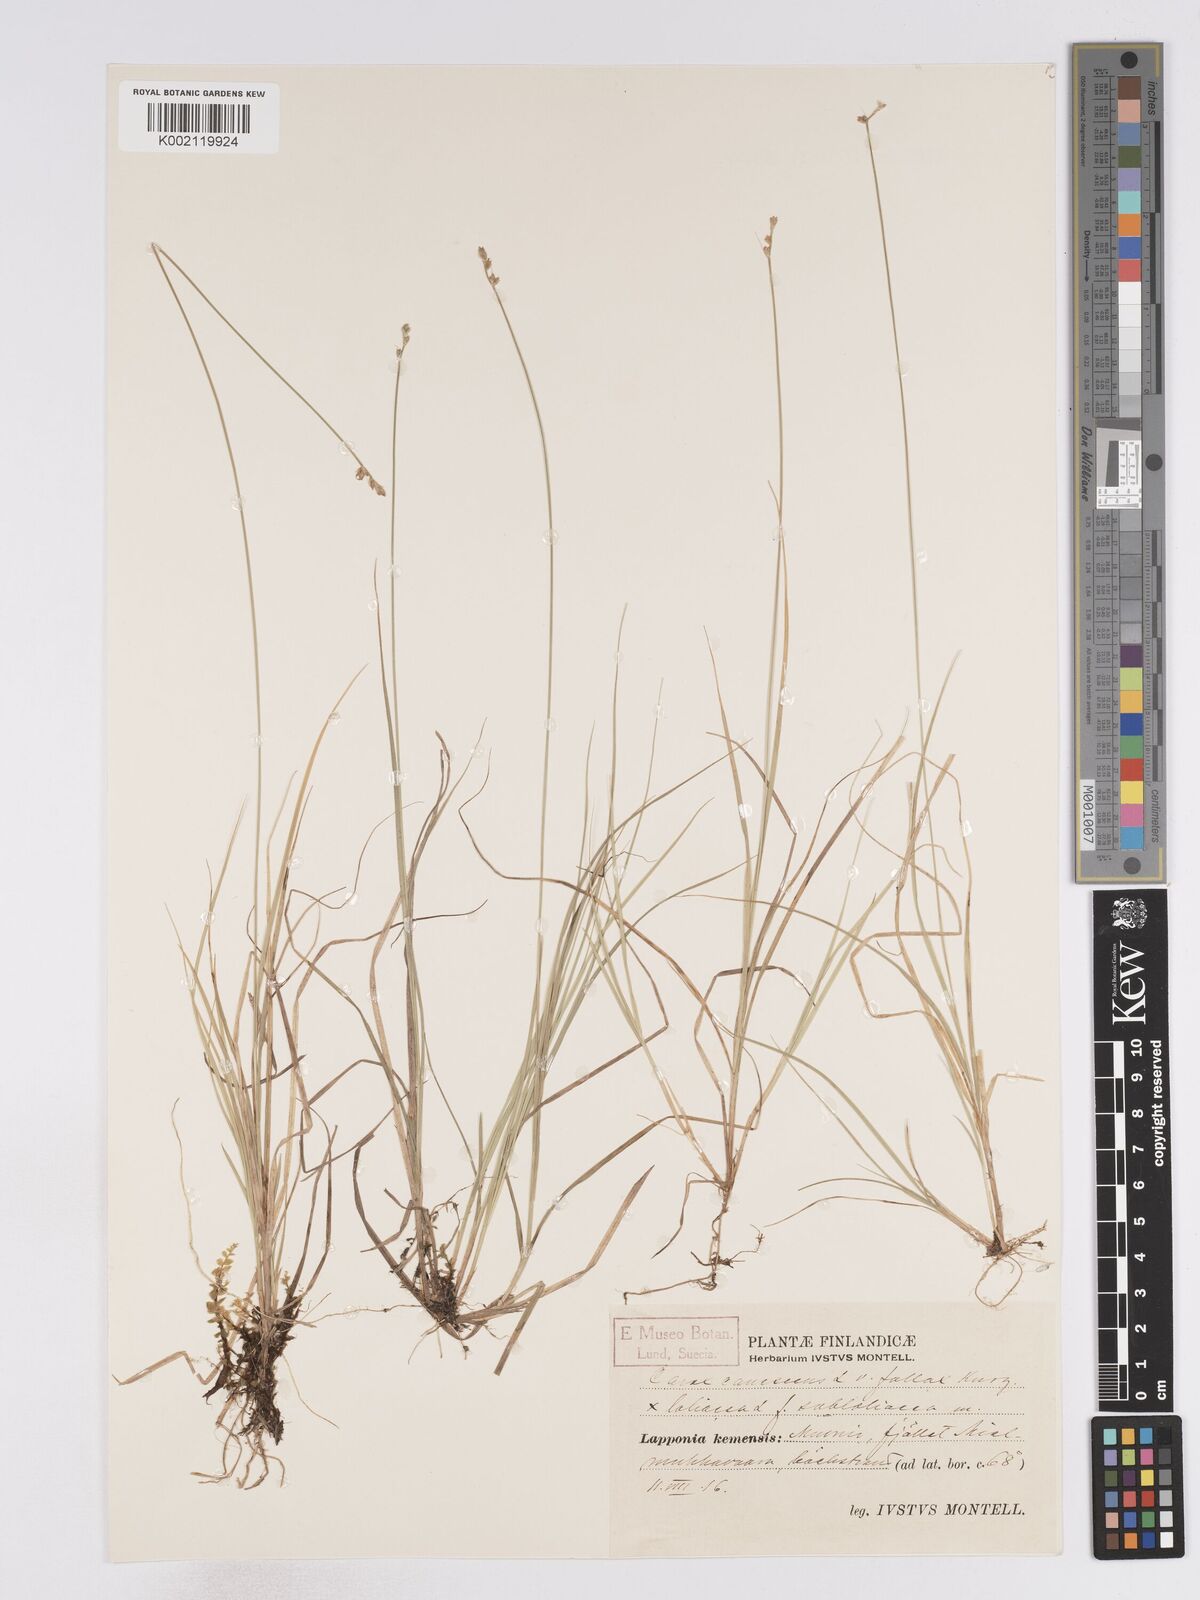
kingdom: Plantae
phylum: Tracheophyta
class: Liliopsida
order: Poales
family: Cyperaceae
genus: Carex
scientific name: Carex curta
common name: White sedge
